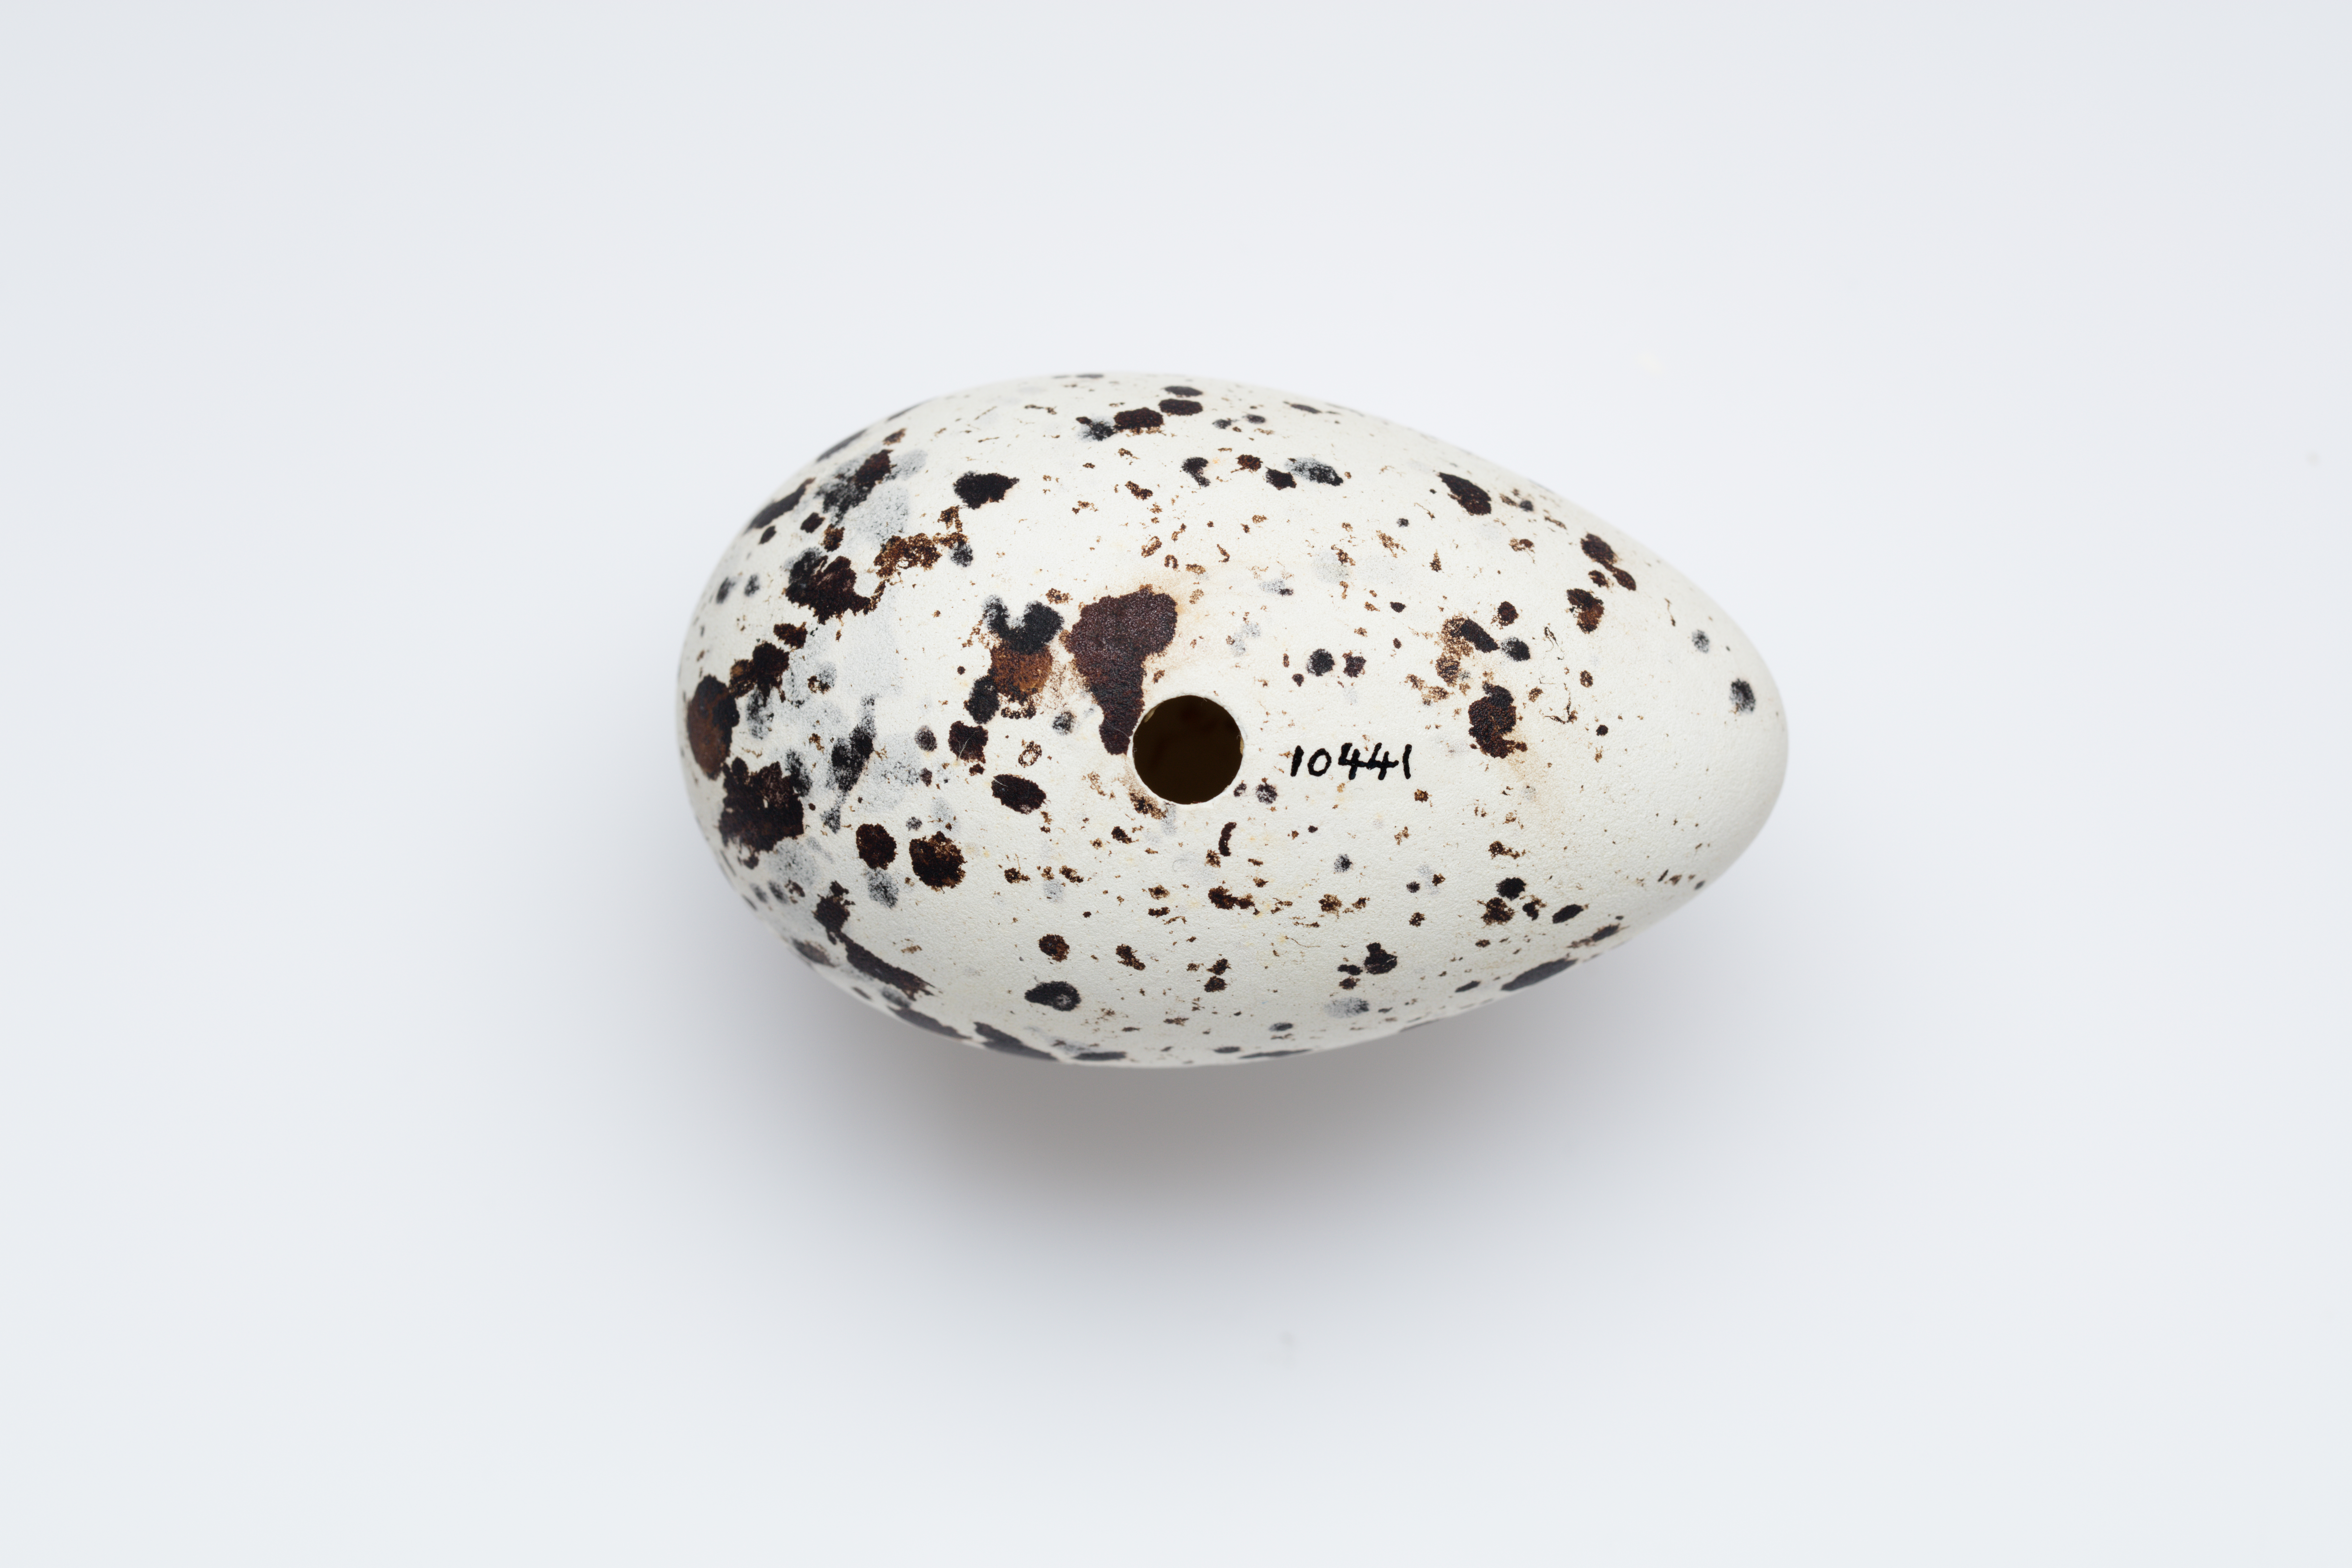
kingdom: Animalia
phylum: Chordata
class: Aves
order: Charadriiformes
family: Alcidae
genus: Alca
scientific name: Alca torda
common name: Razorbill
